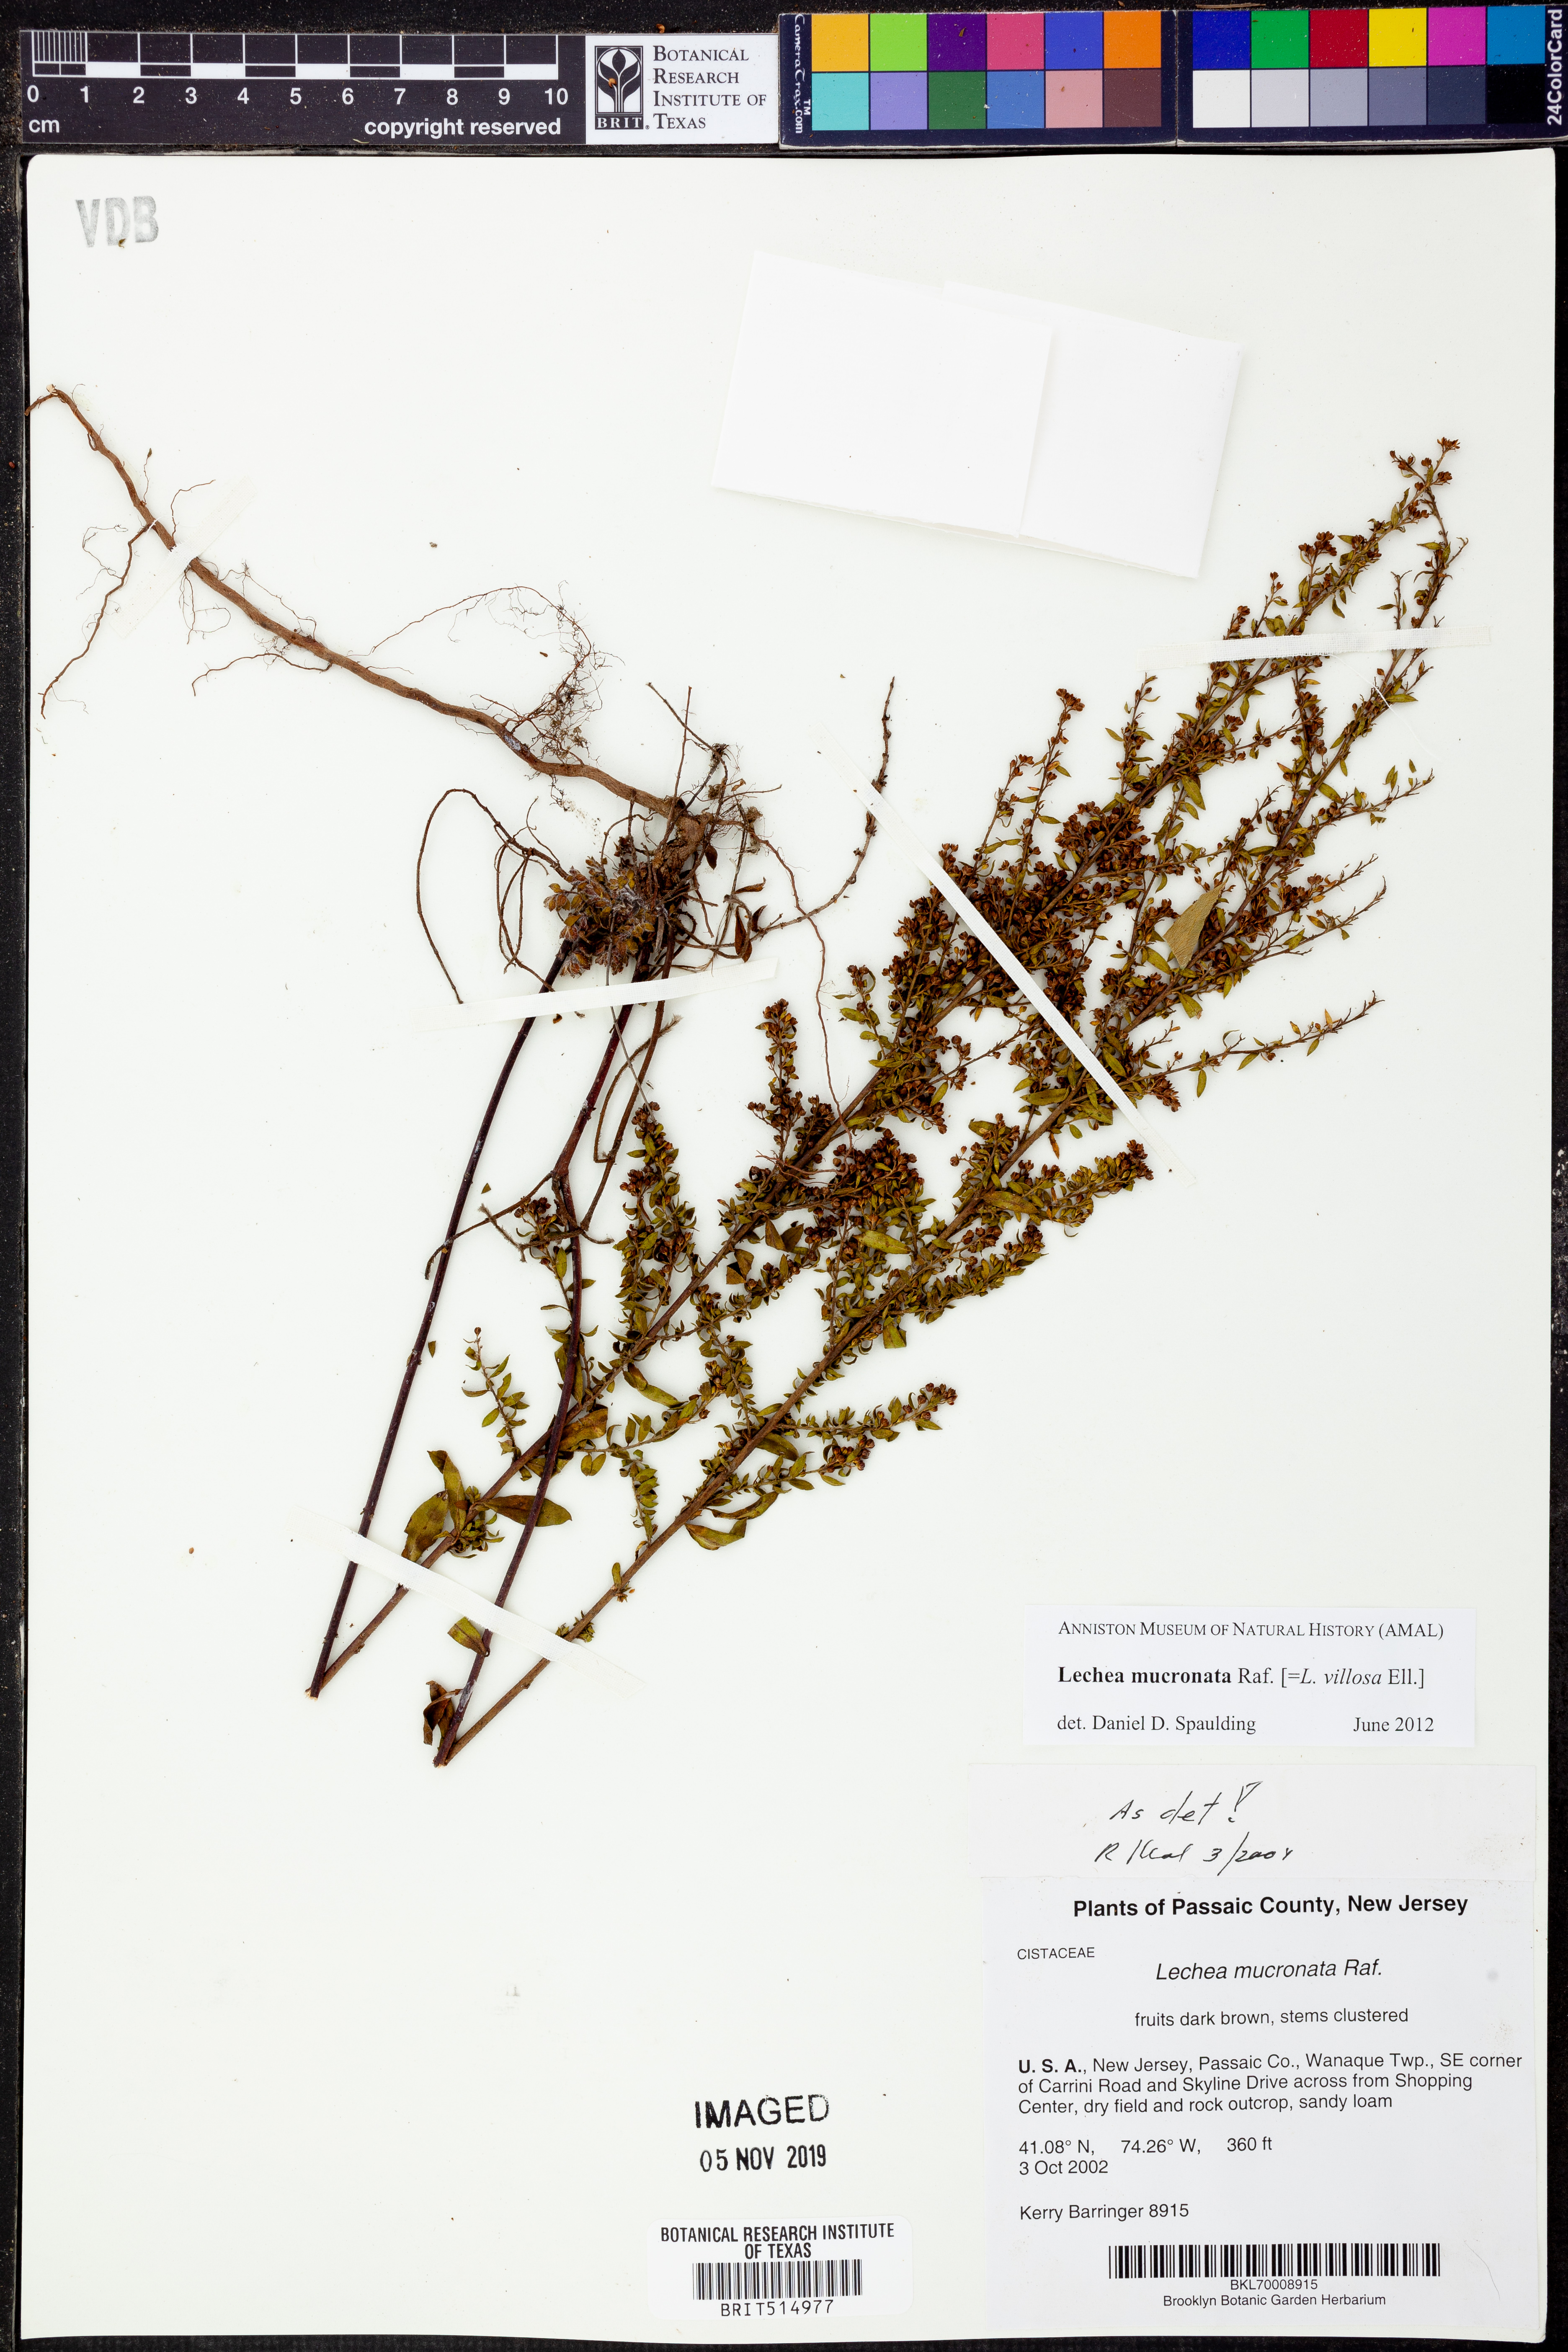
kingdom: Plantae
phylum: Tracheophyta
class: Magnoliopsida
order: Malvales
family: Cistaceae
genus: Lechea
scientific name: Lechea mucronata
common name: Hairy pinweed
